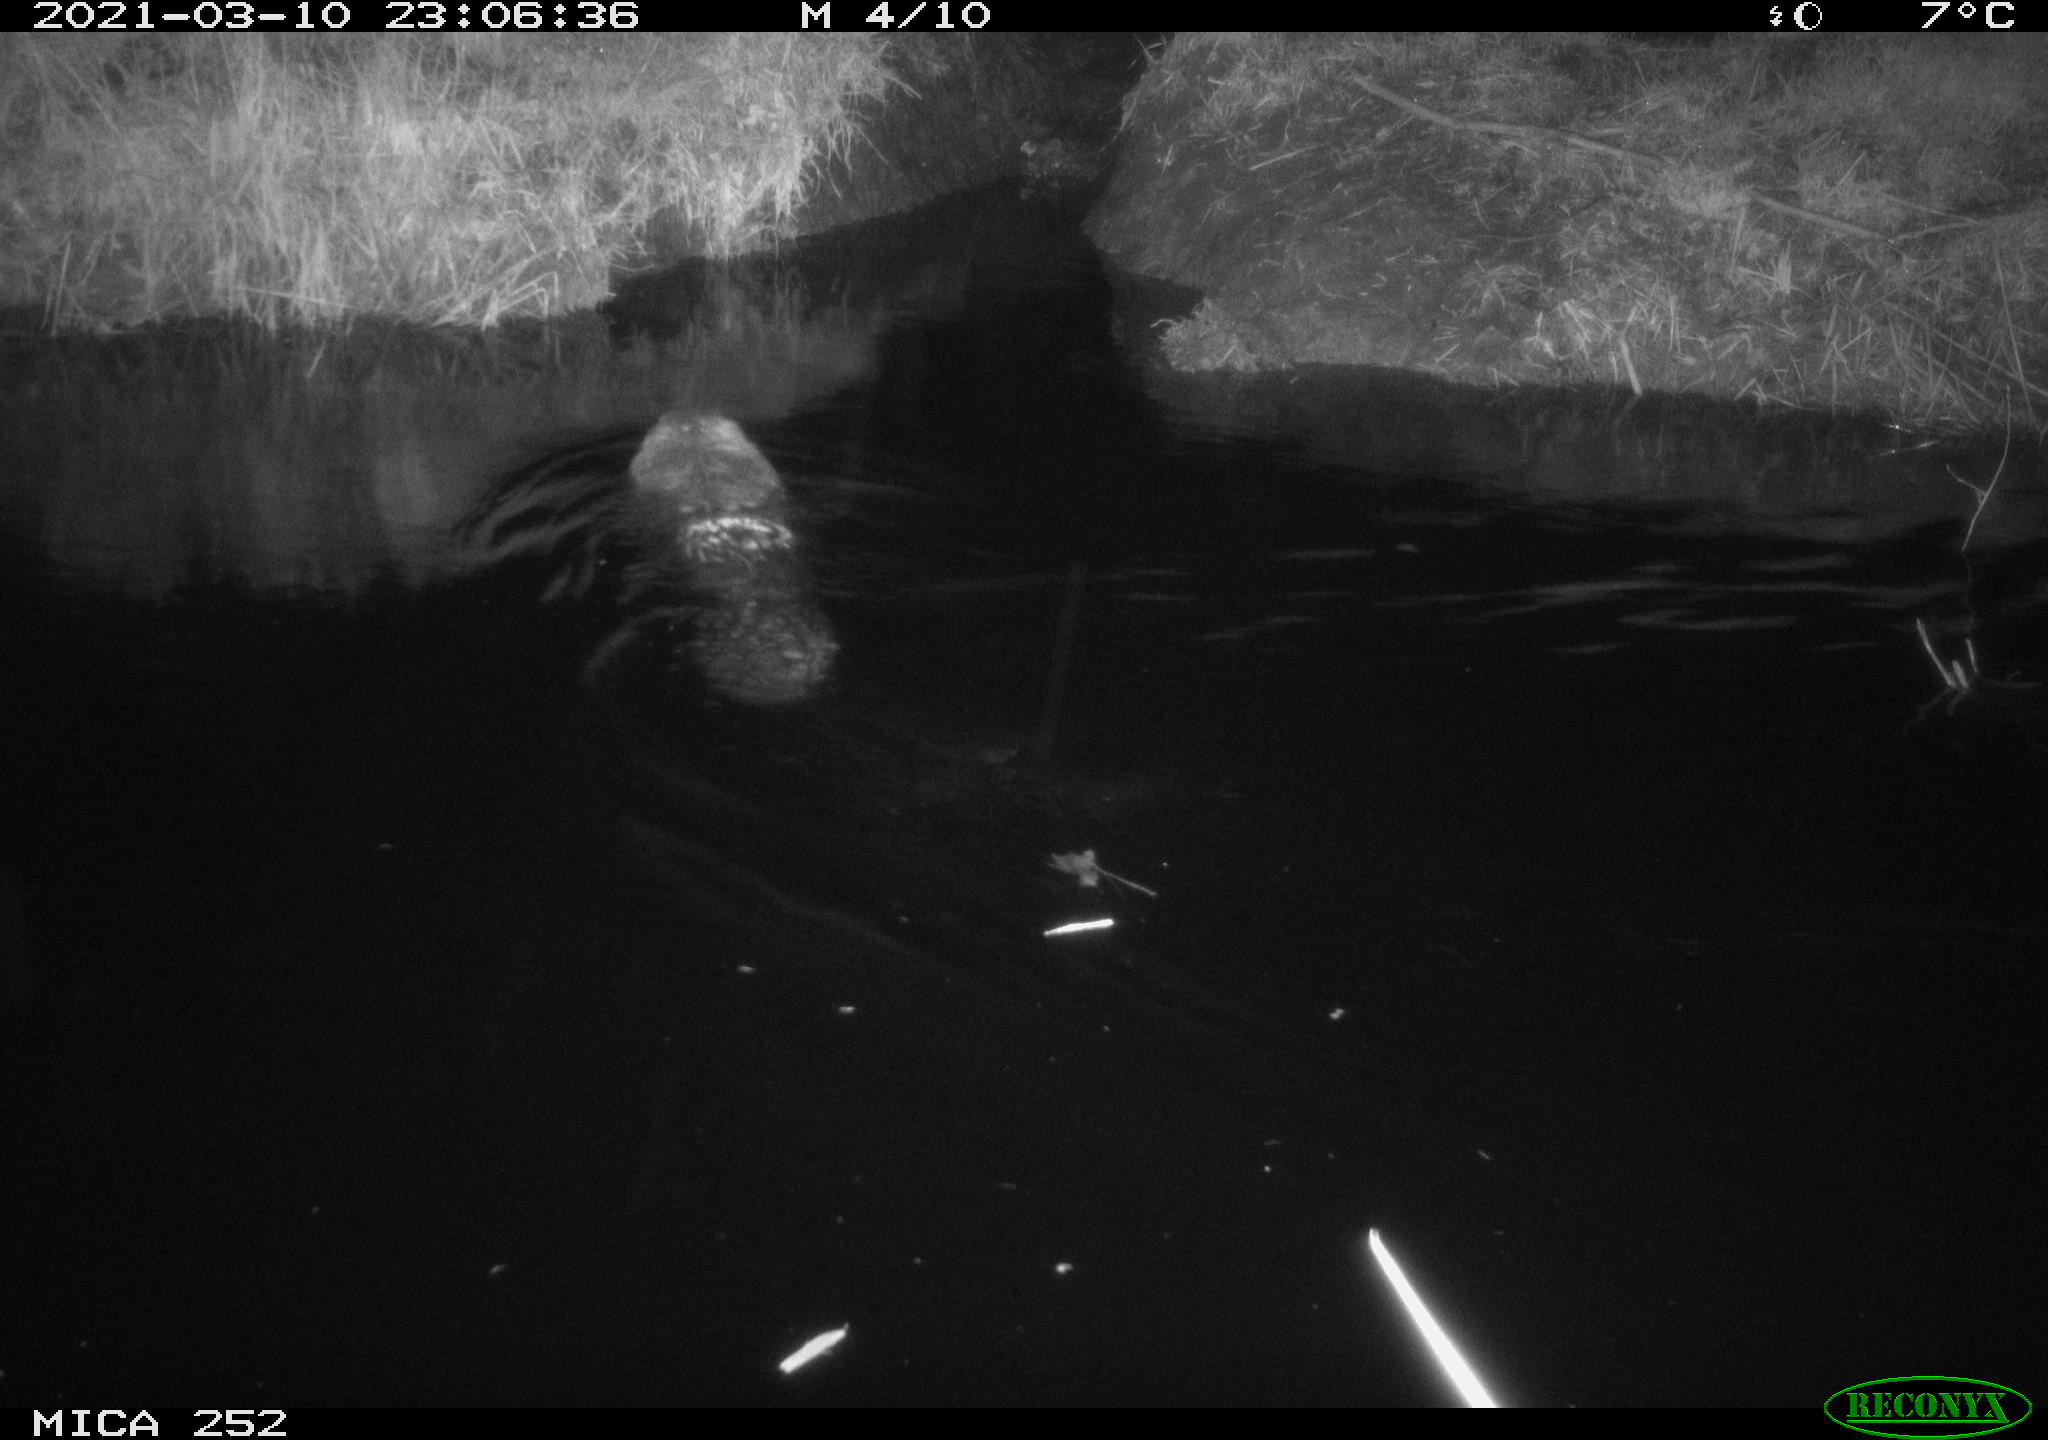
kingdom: Animalia
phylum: Chordata
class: Mammalia
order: Rodentia
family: Castoridae
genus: Castor
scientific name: Castor fiber
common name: Eurasian beaver
